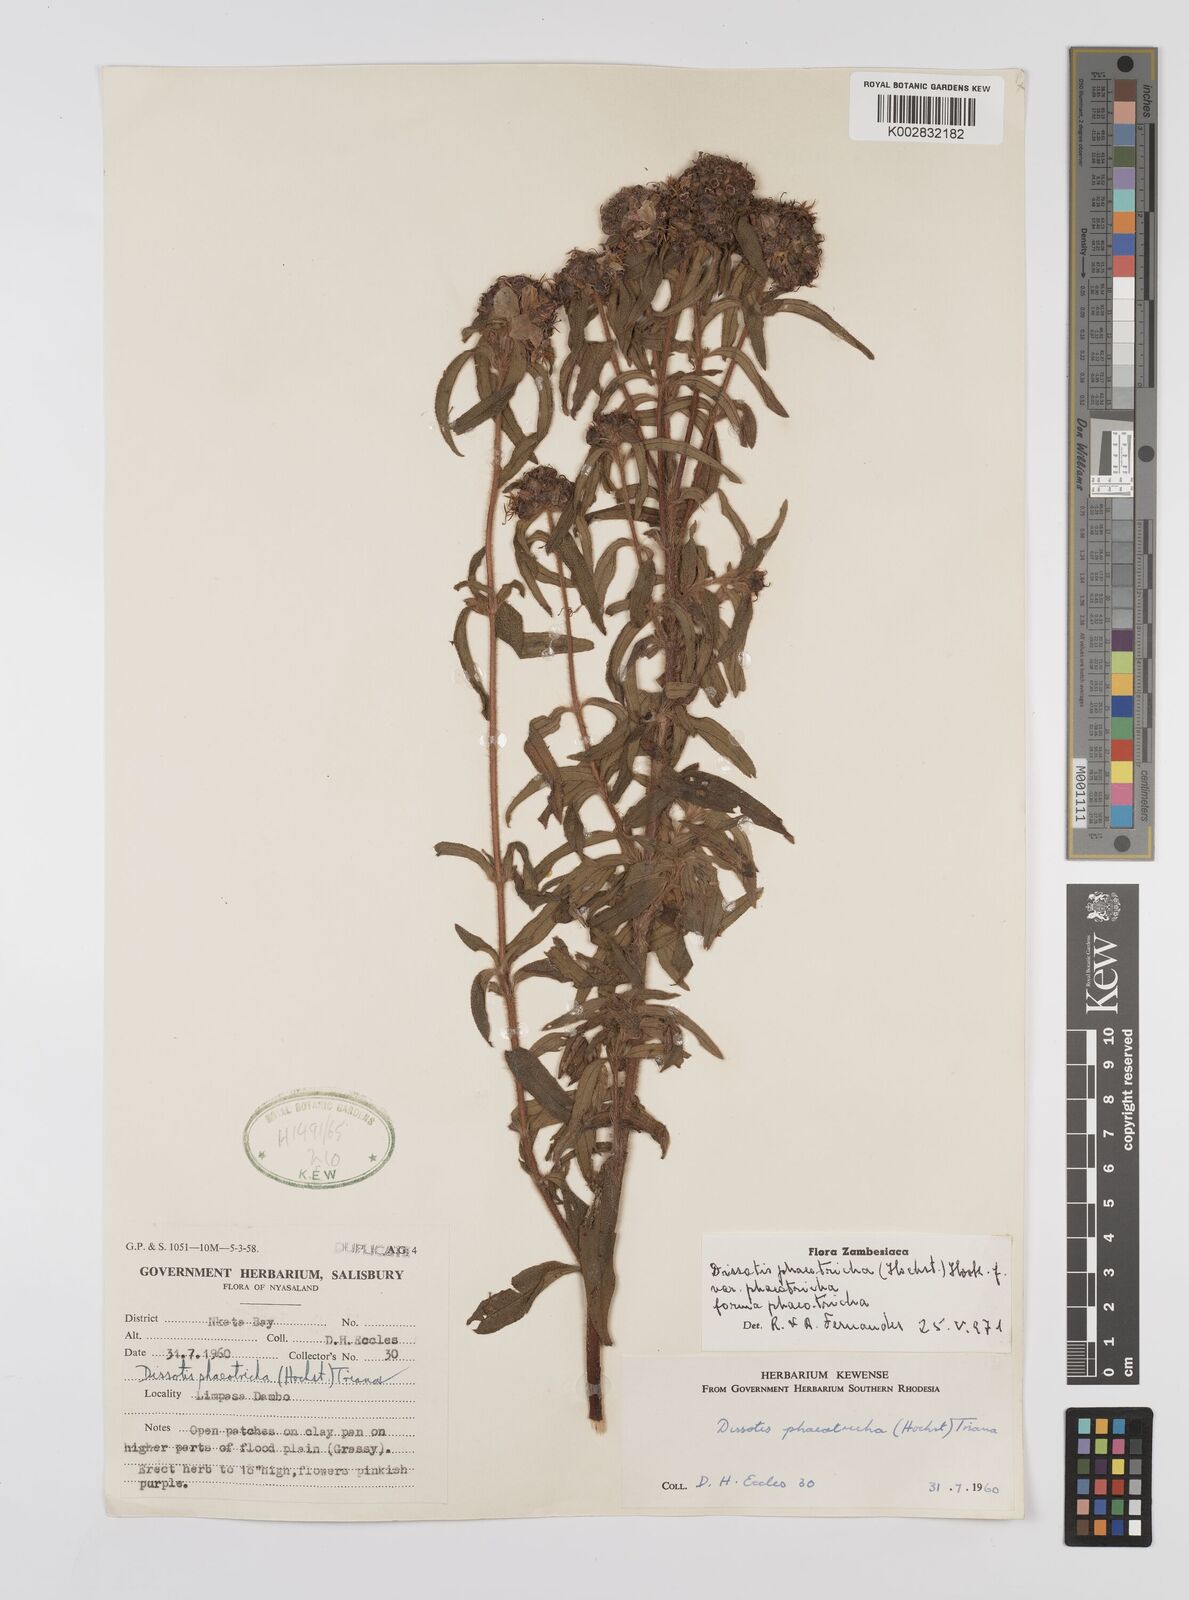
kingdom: Plantae
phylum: Tracheophyta
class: Magnoliopsida
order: Myrtales
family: Melastomataceae
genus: Antherotoma
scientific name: Antherotoma phaeotricha
